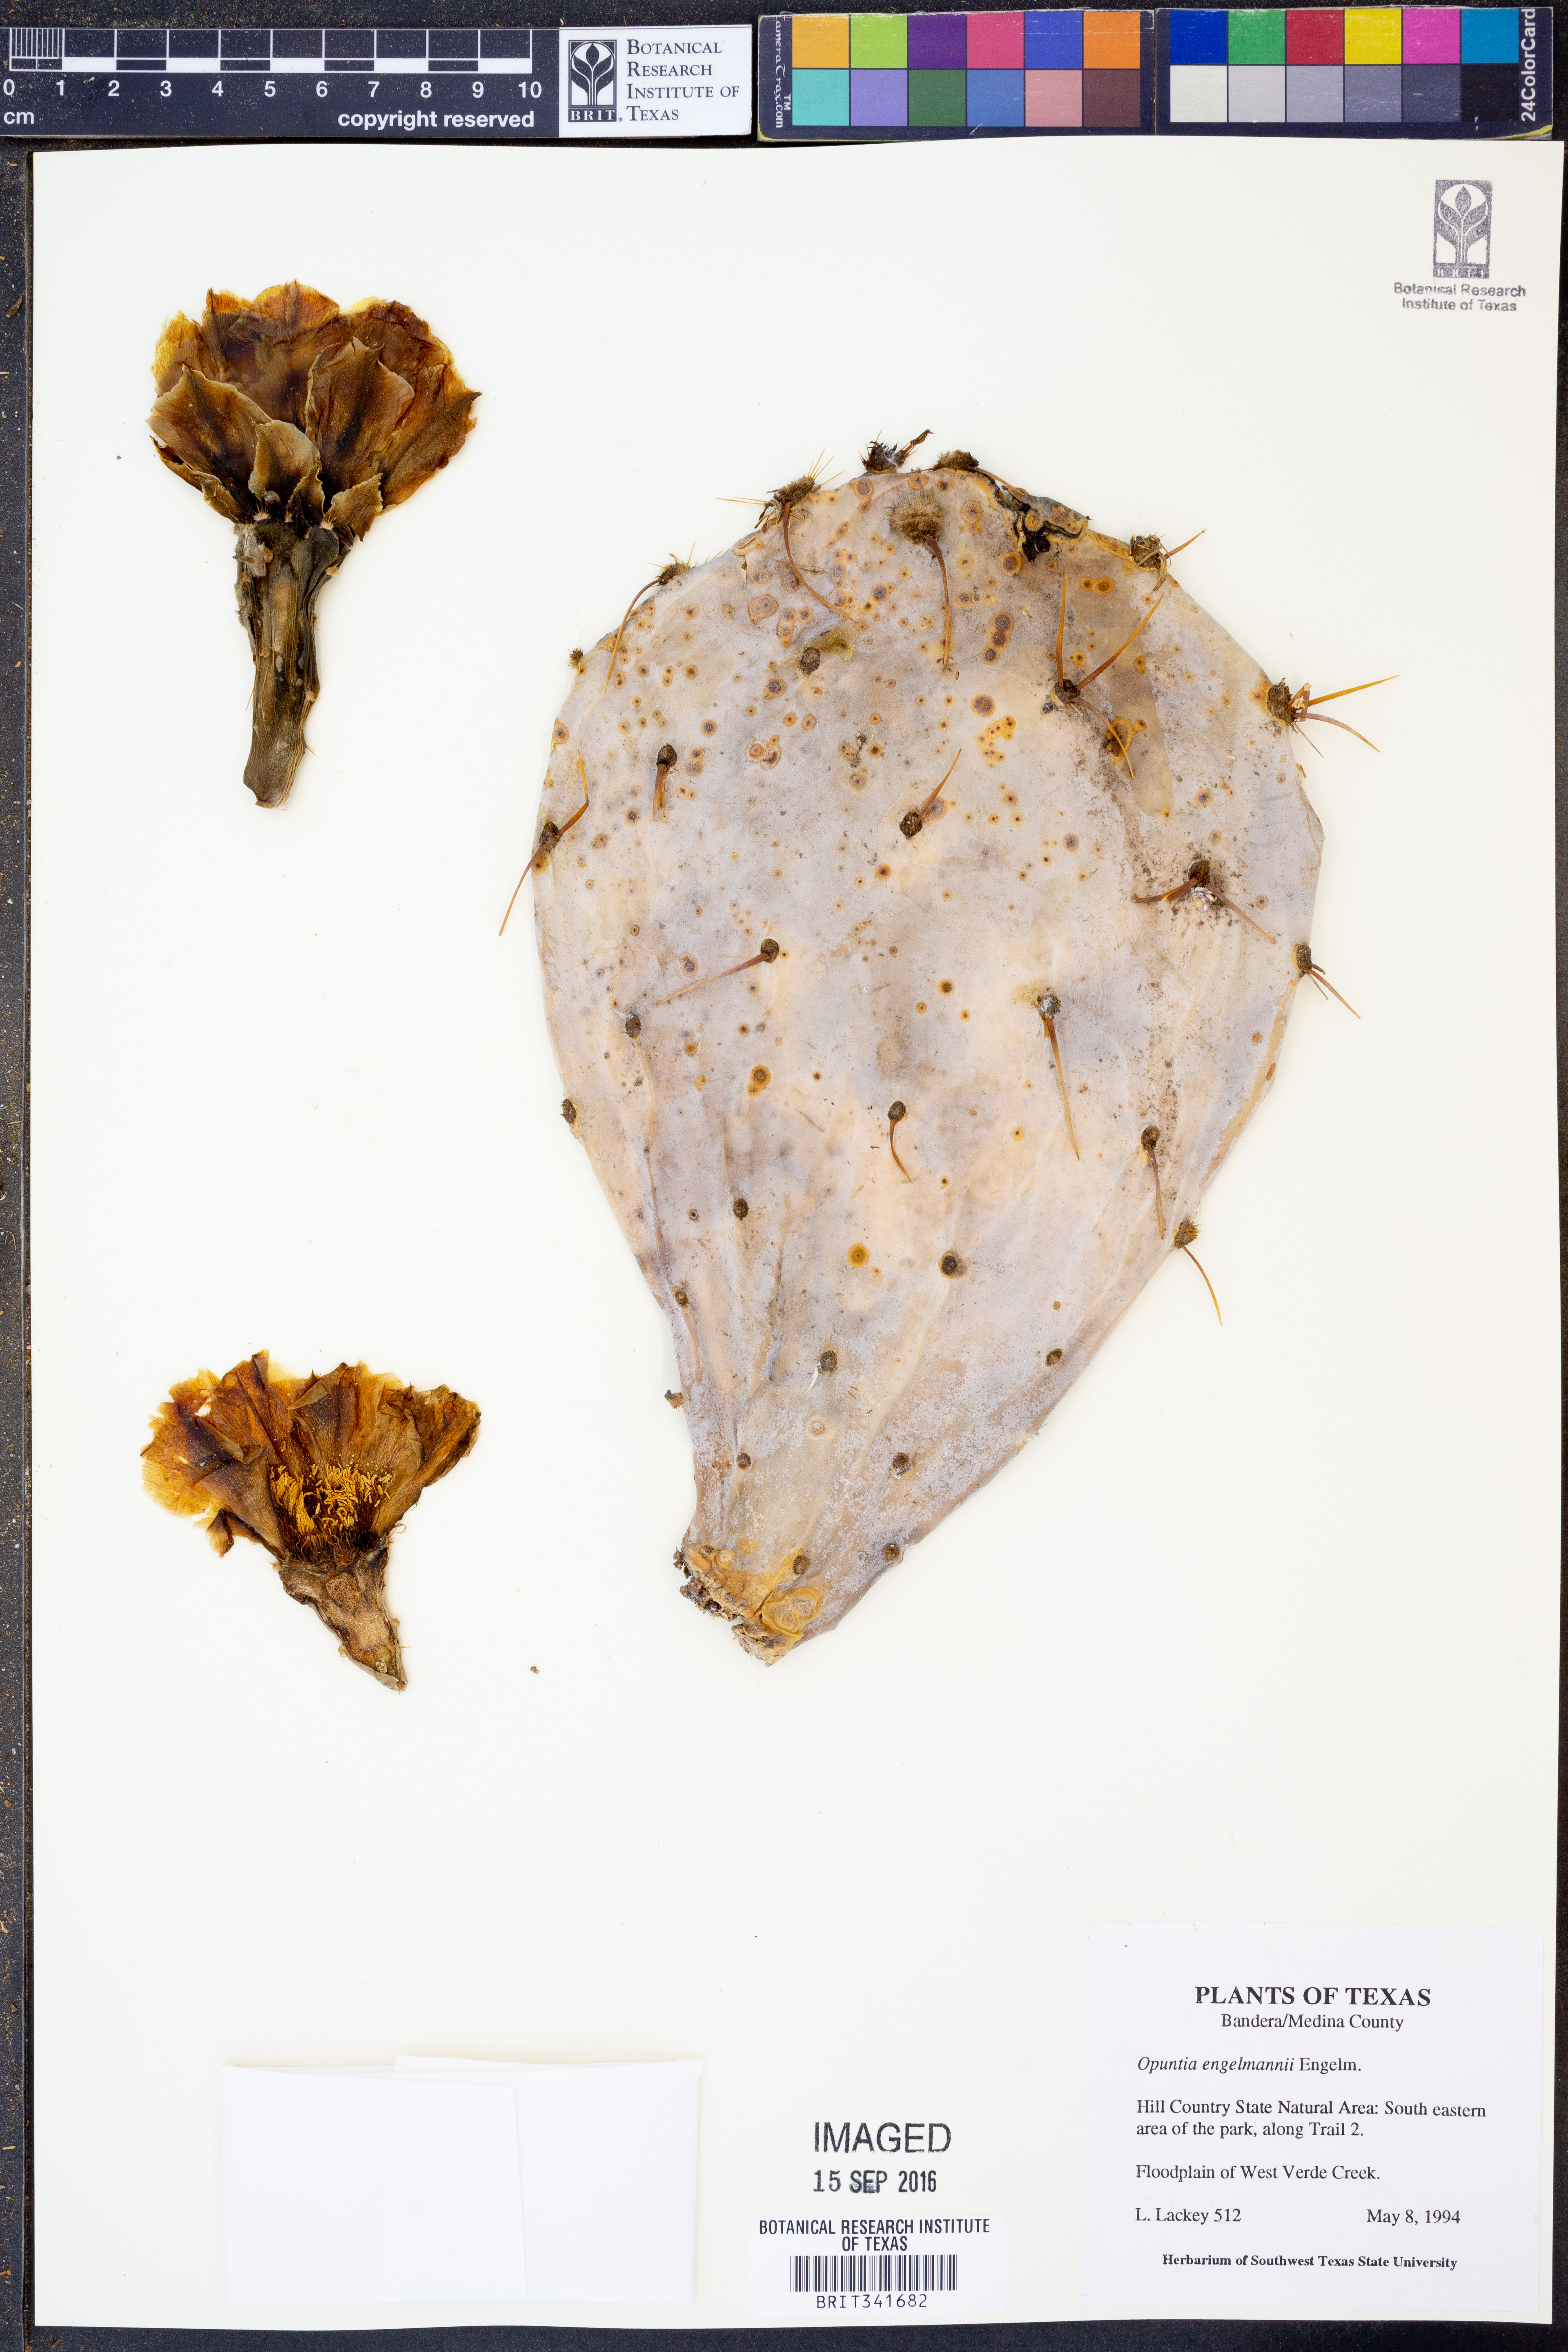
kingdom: Plantae
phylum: Tracheophyta
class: Magnoliopsida
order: Caryophyllales
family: Cactaceae
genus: Opuntia
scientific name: Opuntia engelmannii
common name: Cactus-apple
